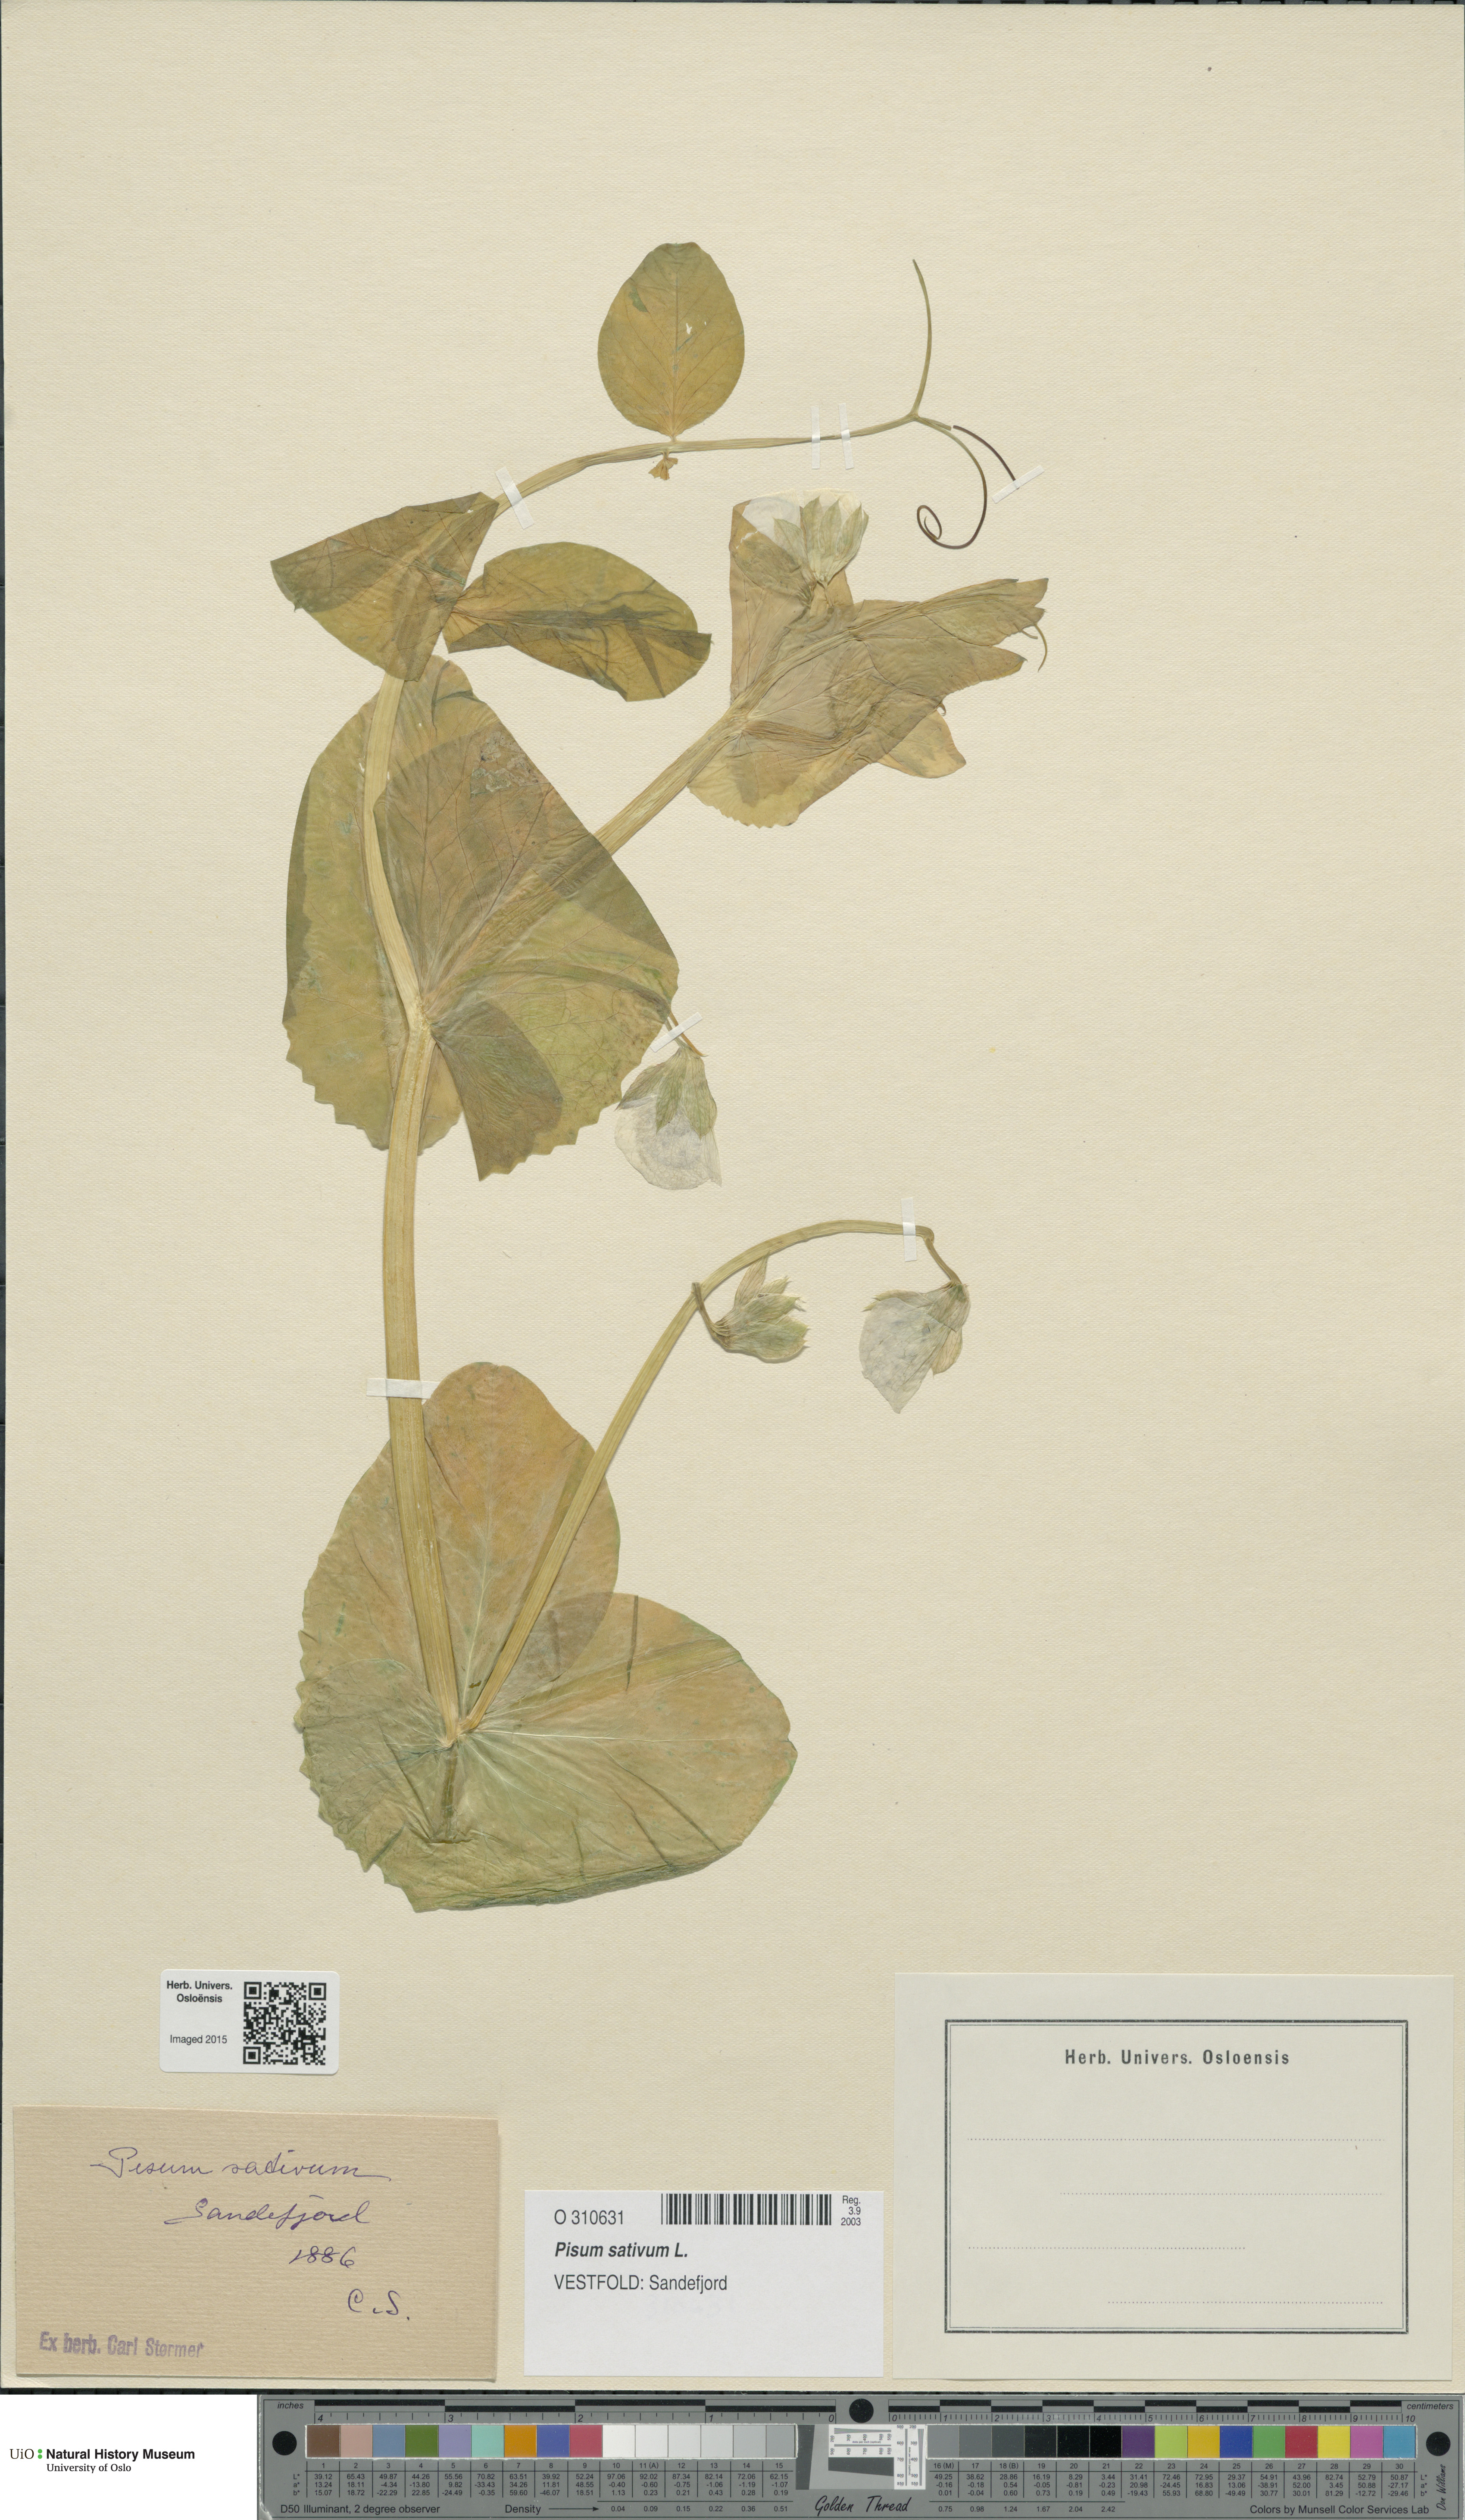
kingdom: Plantae
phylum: Tracheophyta
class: Magnoliopsida
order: Fabales
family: Fabaceae
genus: Lathyrus
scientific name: Lathyrus oleraceus
